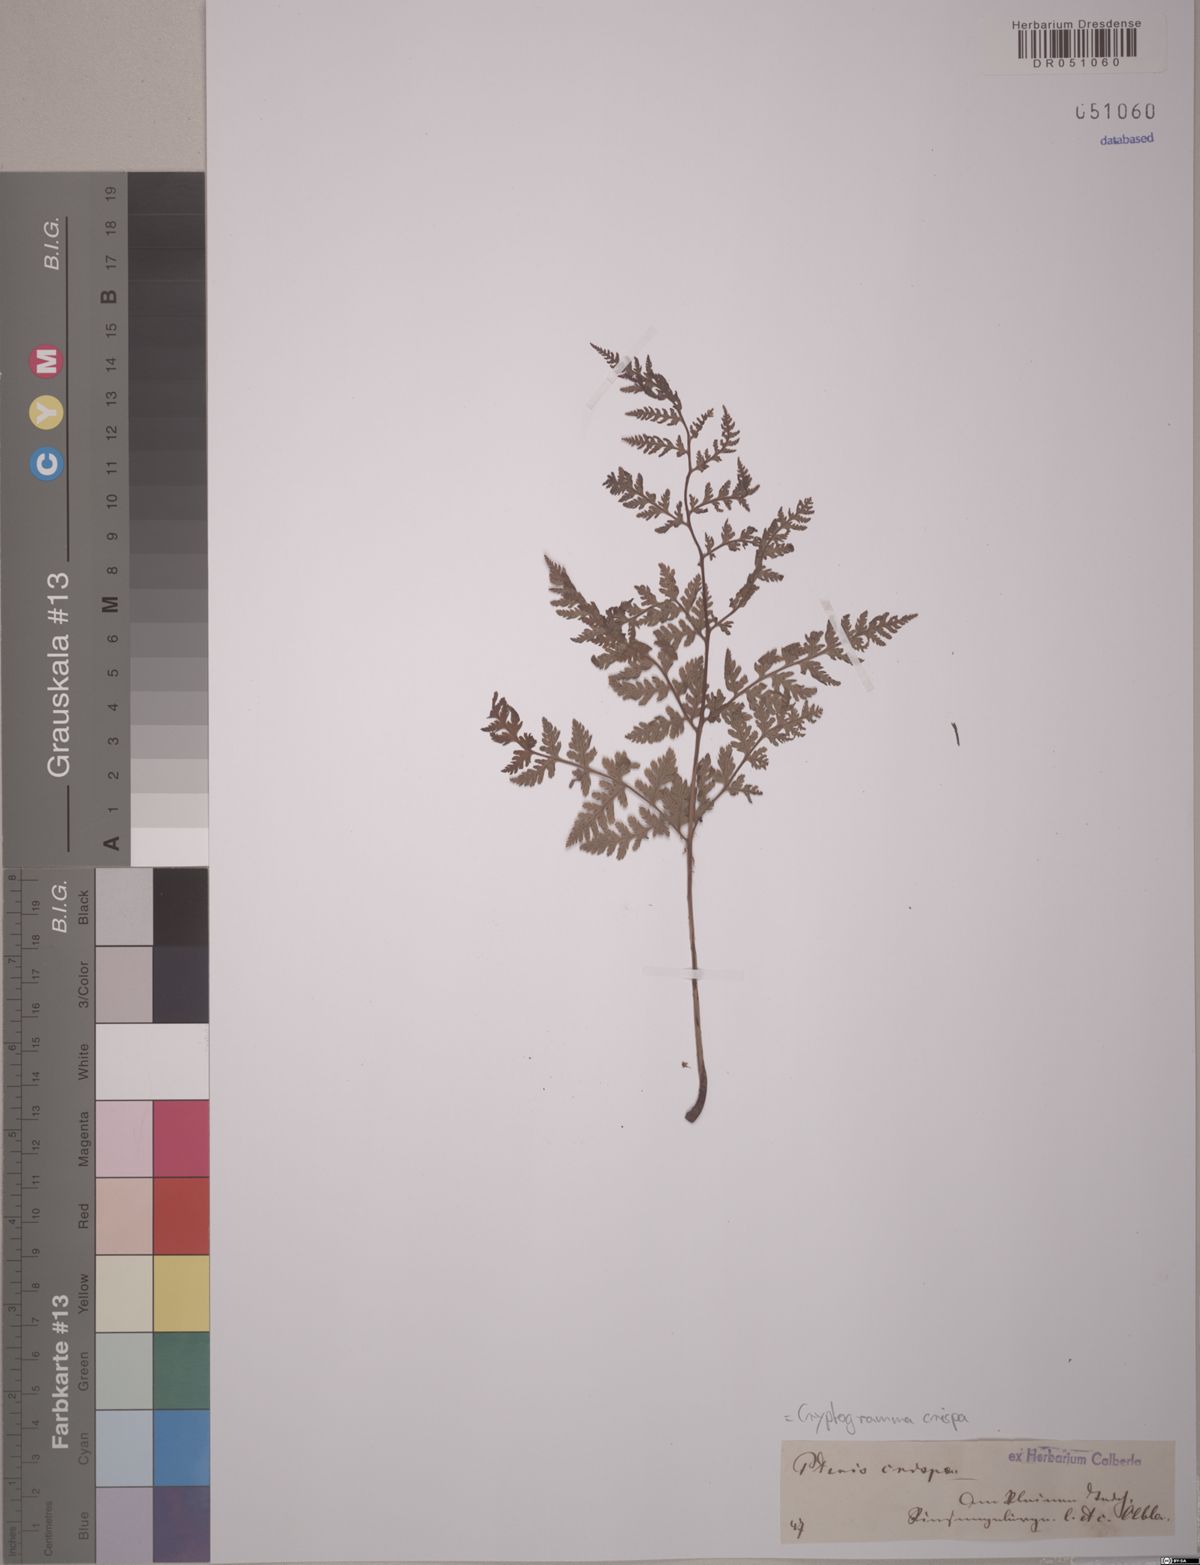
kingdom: Plantae
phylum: Tracheophyta
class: Polypodiopsida
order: Polypodiales
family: Pteridaceae
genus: Cryptogramma
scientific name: Cryptogramma crispa
